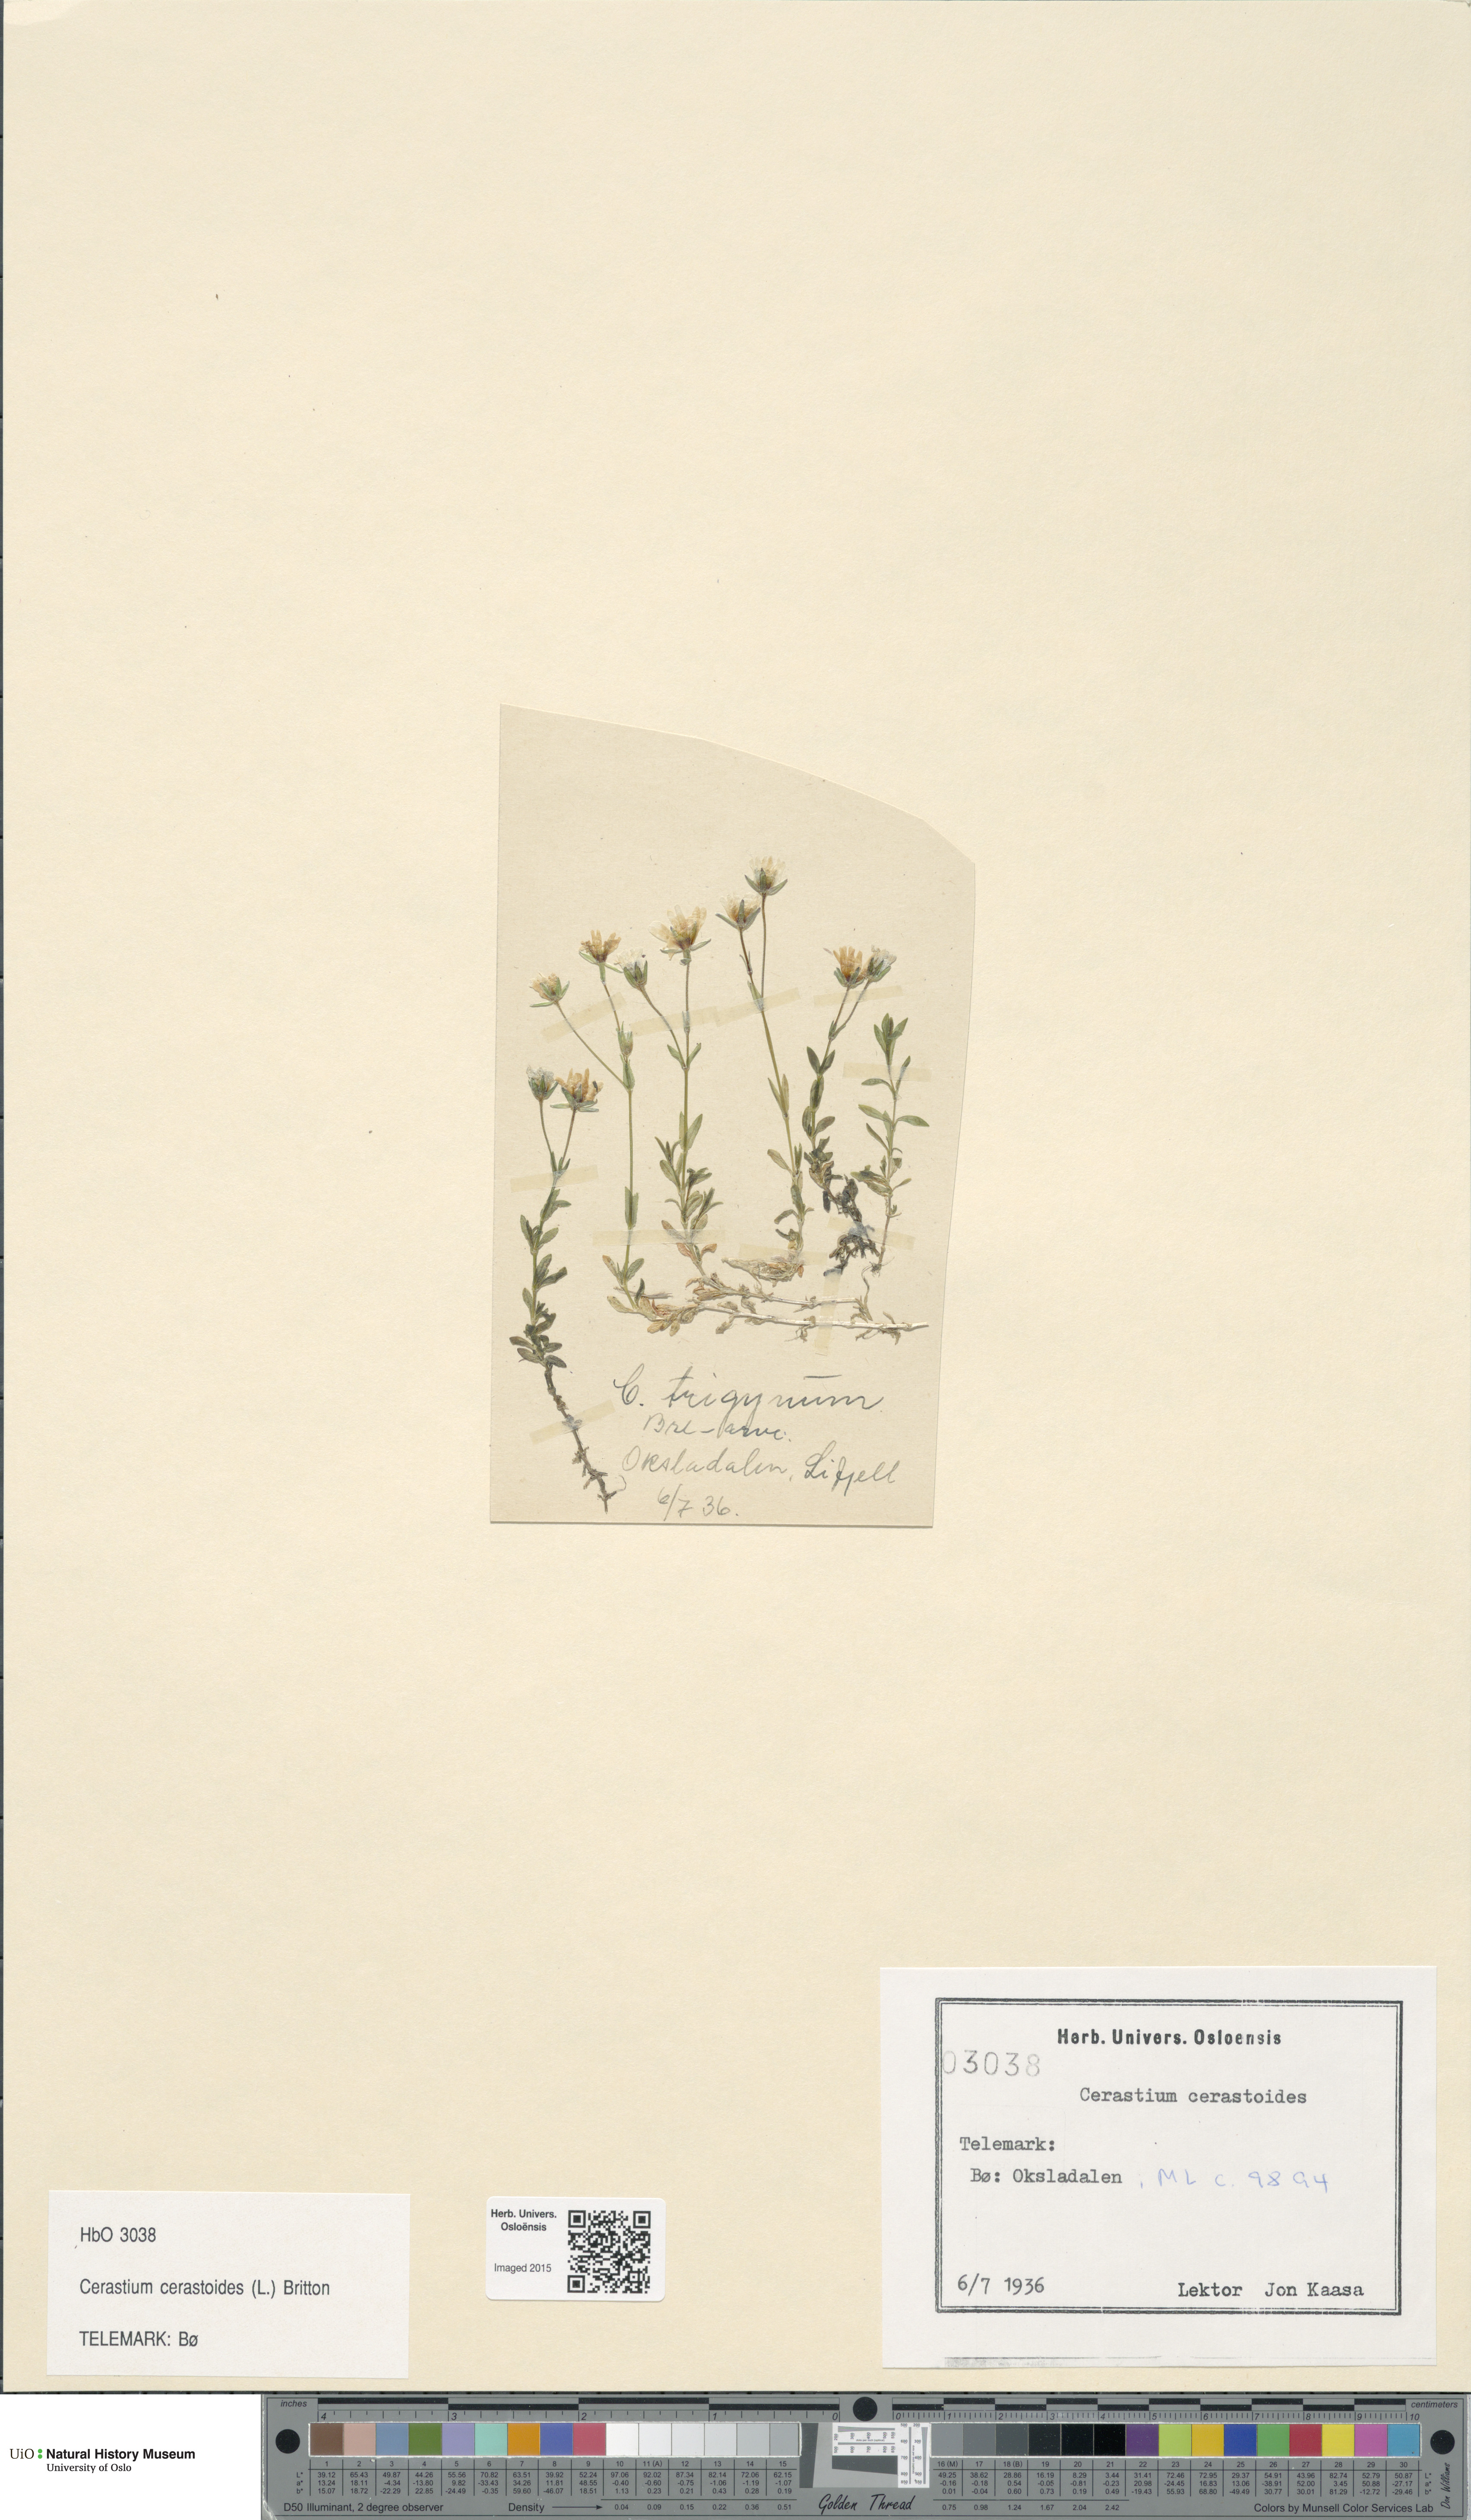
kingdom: Plantae
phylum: Tracheophyta
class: Magnoliopsida
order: Caryophyllales
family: Caryophyllaceae
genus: Dichodon
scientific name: Dichodon cerastoides
